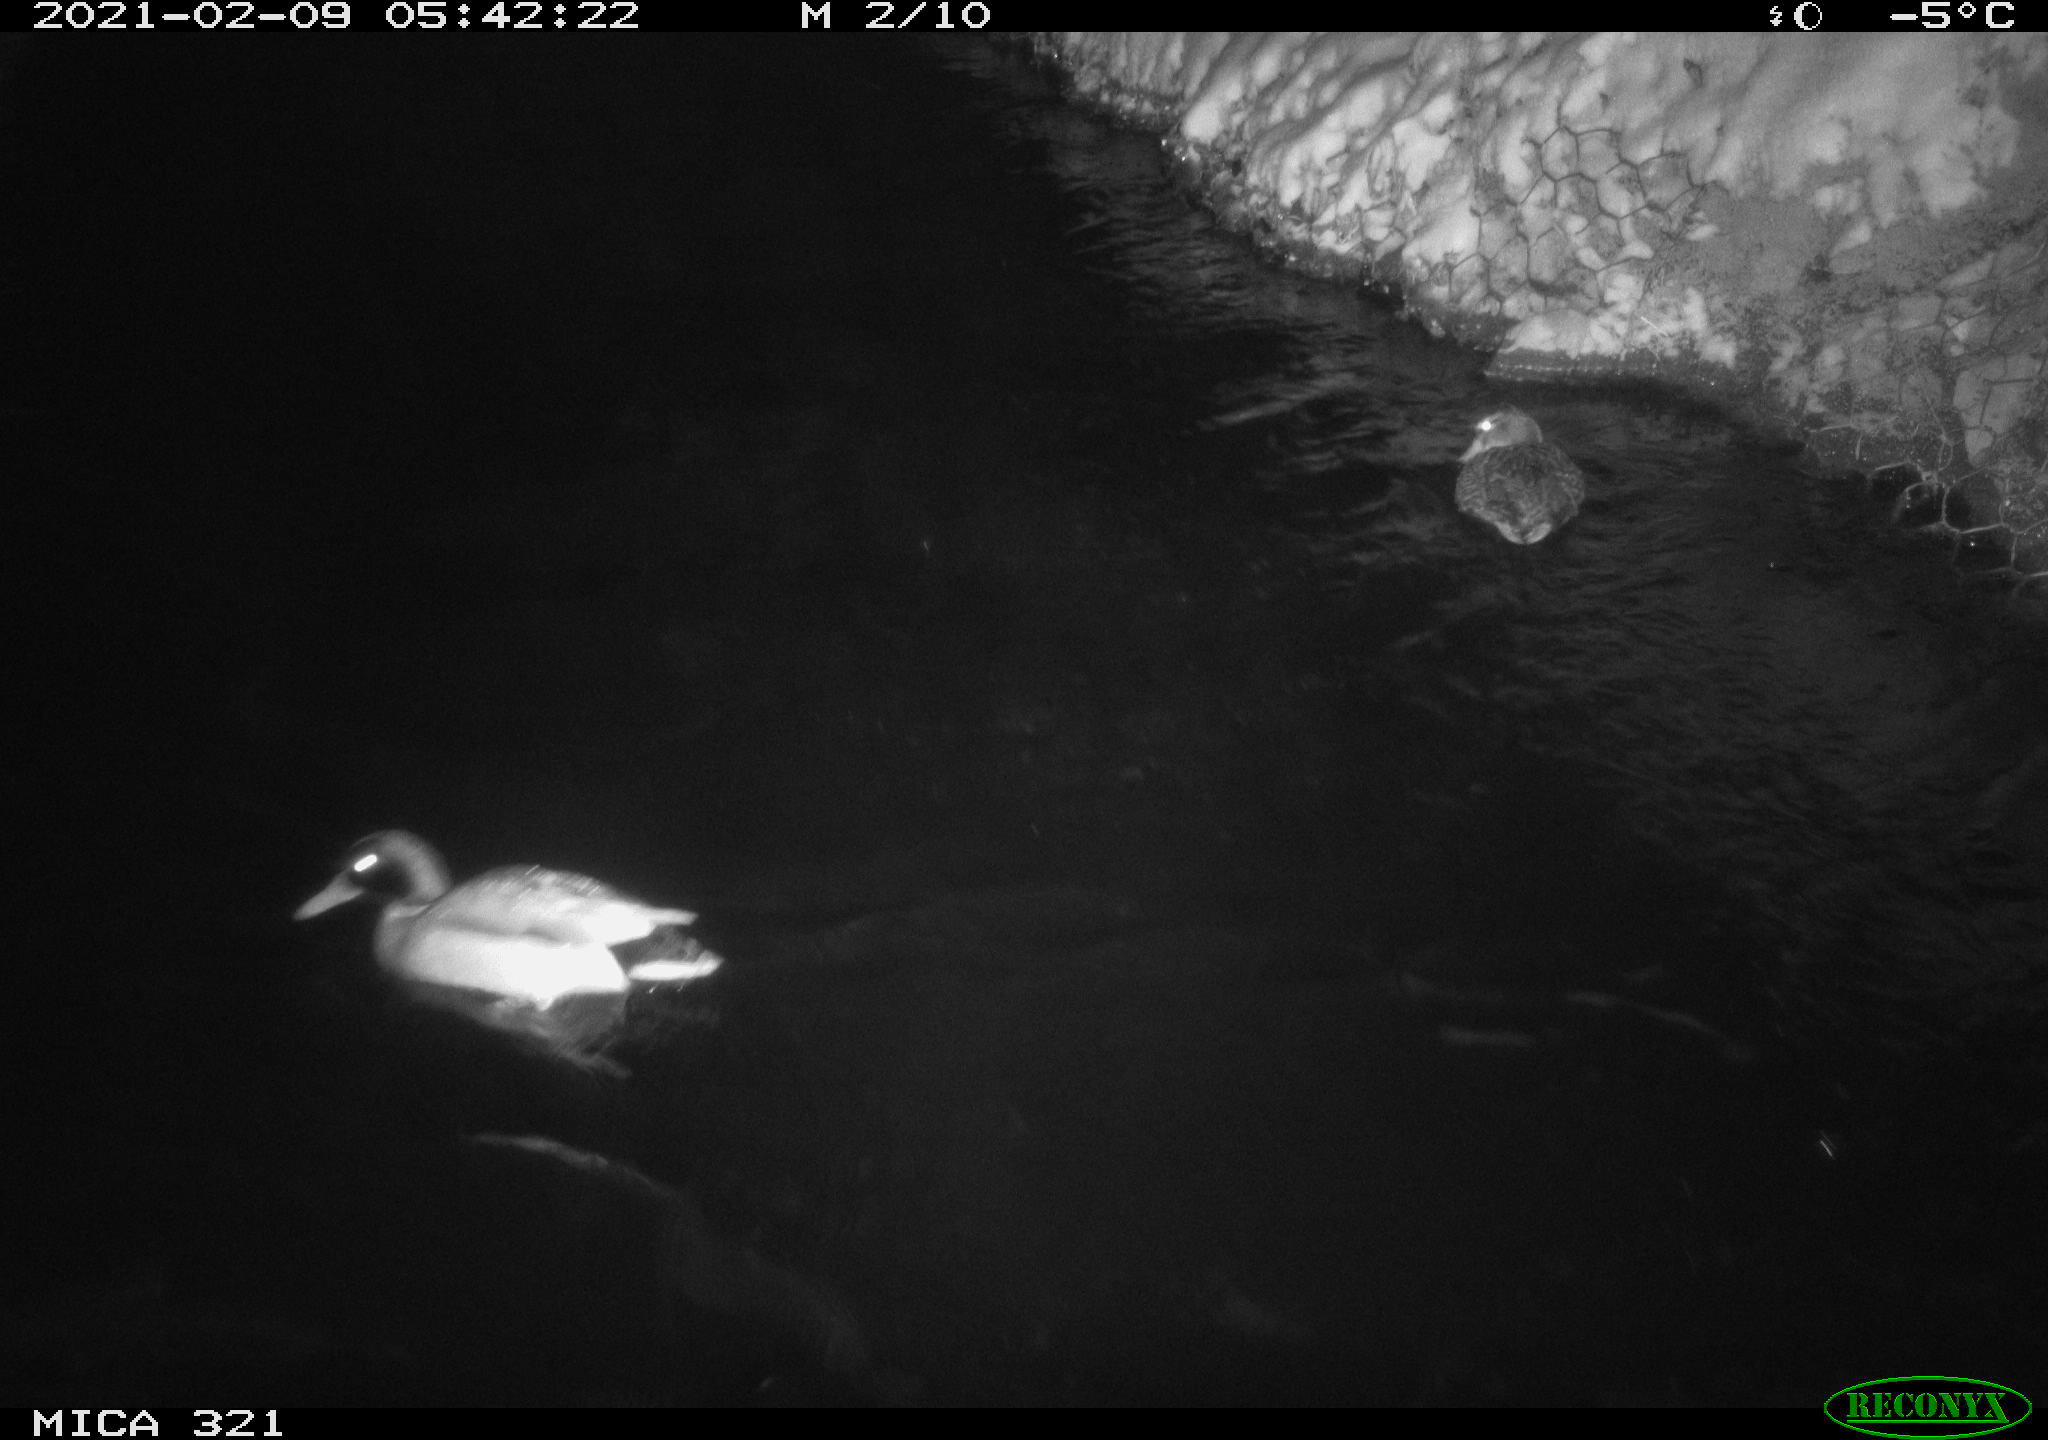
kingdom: Animalia
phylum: Chordata
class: Aves
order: Anseriformes
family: Anatidae
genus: Anas
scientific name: Anas platyrhynchos
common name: Mallard
